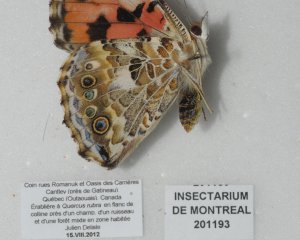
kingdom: Animalia
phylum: Arthropoda
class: Insecta
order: Lepidoptera
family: Nymphalidae
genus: Vanessa
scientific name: Vanessa cardui
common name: Painted Lady
